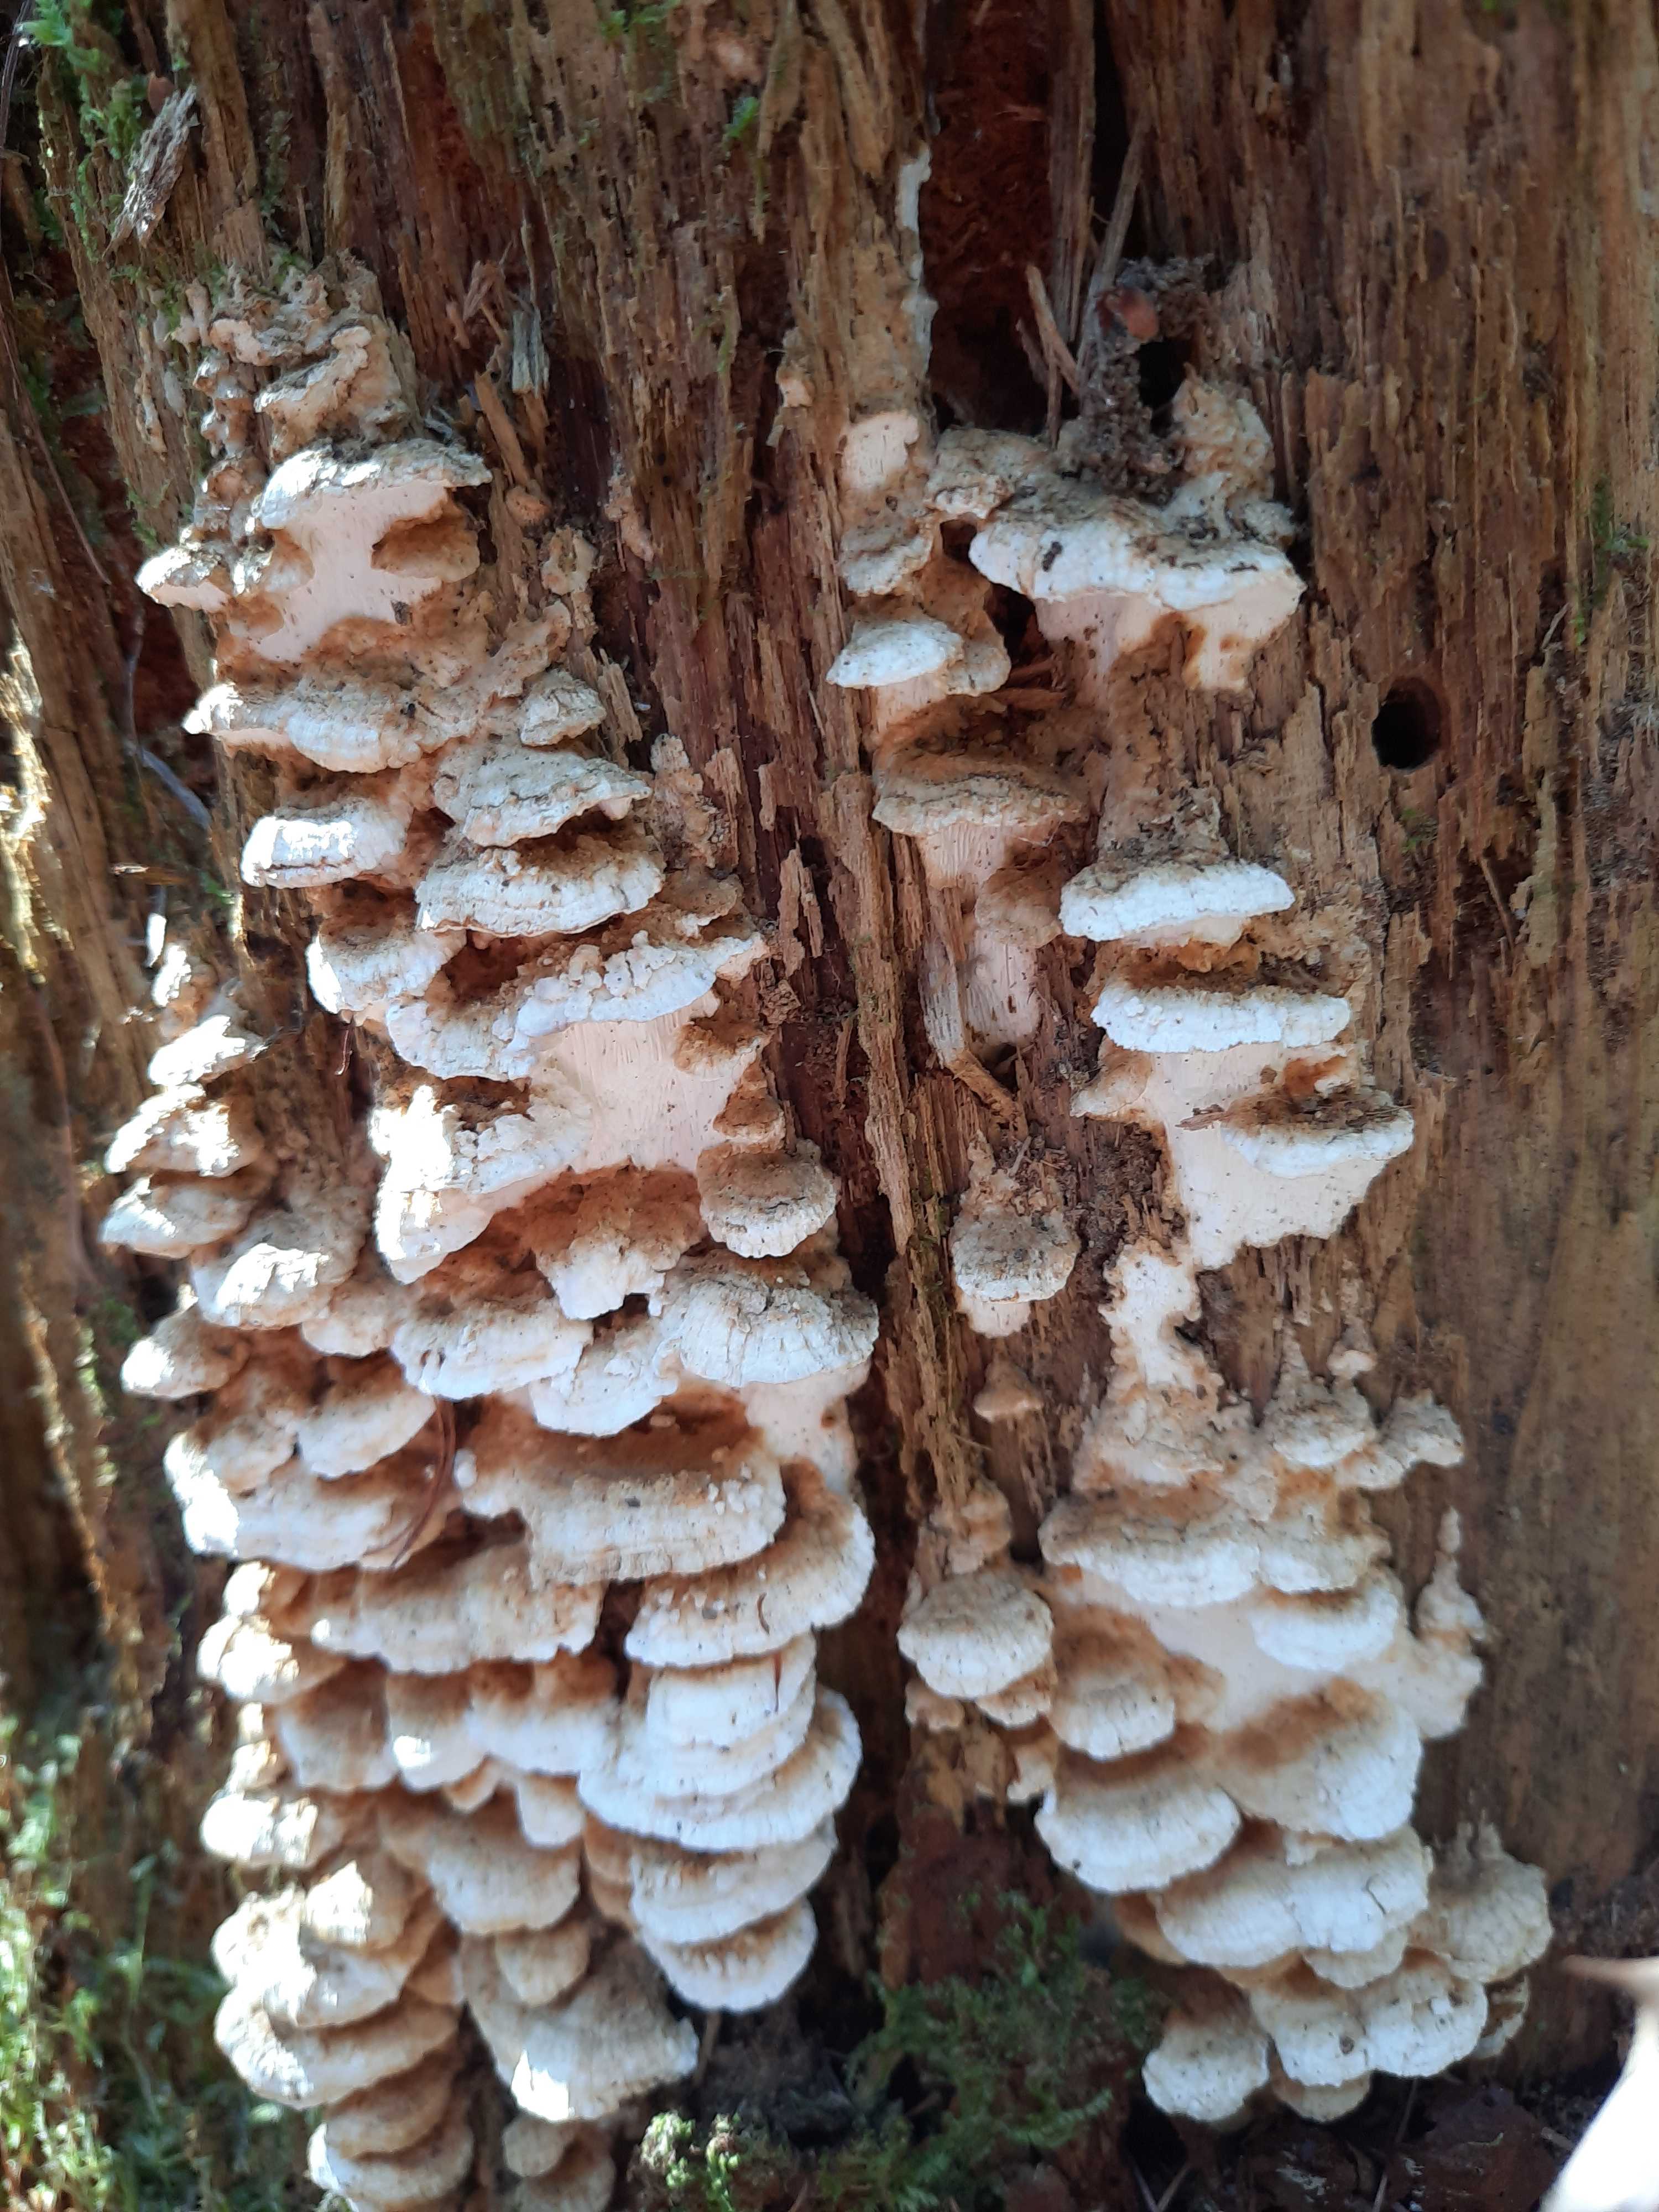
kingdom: Fungi
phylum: Basidiomycota
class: Agaricomycetes
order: Polyporales
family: Fomitopsidaceae
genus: Neoantrodia
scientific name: Neoantrodia serialis
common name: række-sejporesvamp
